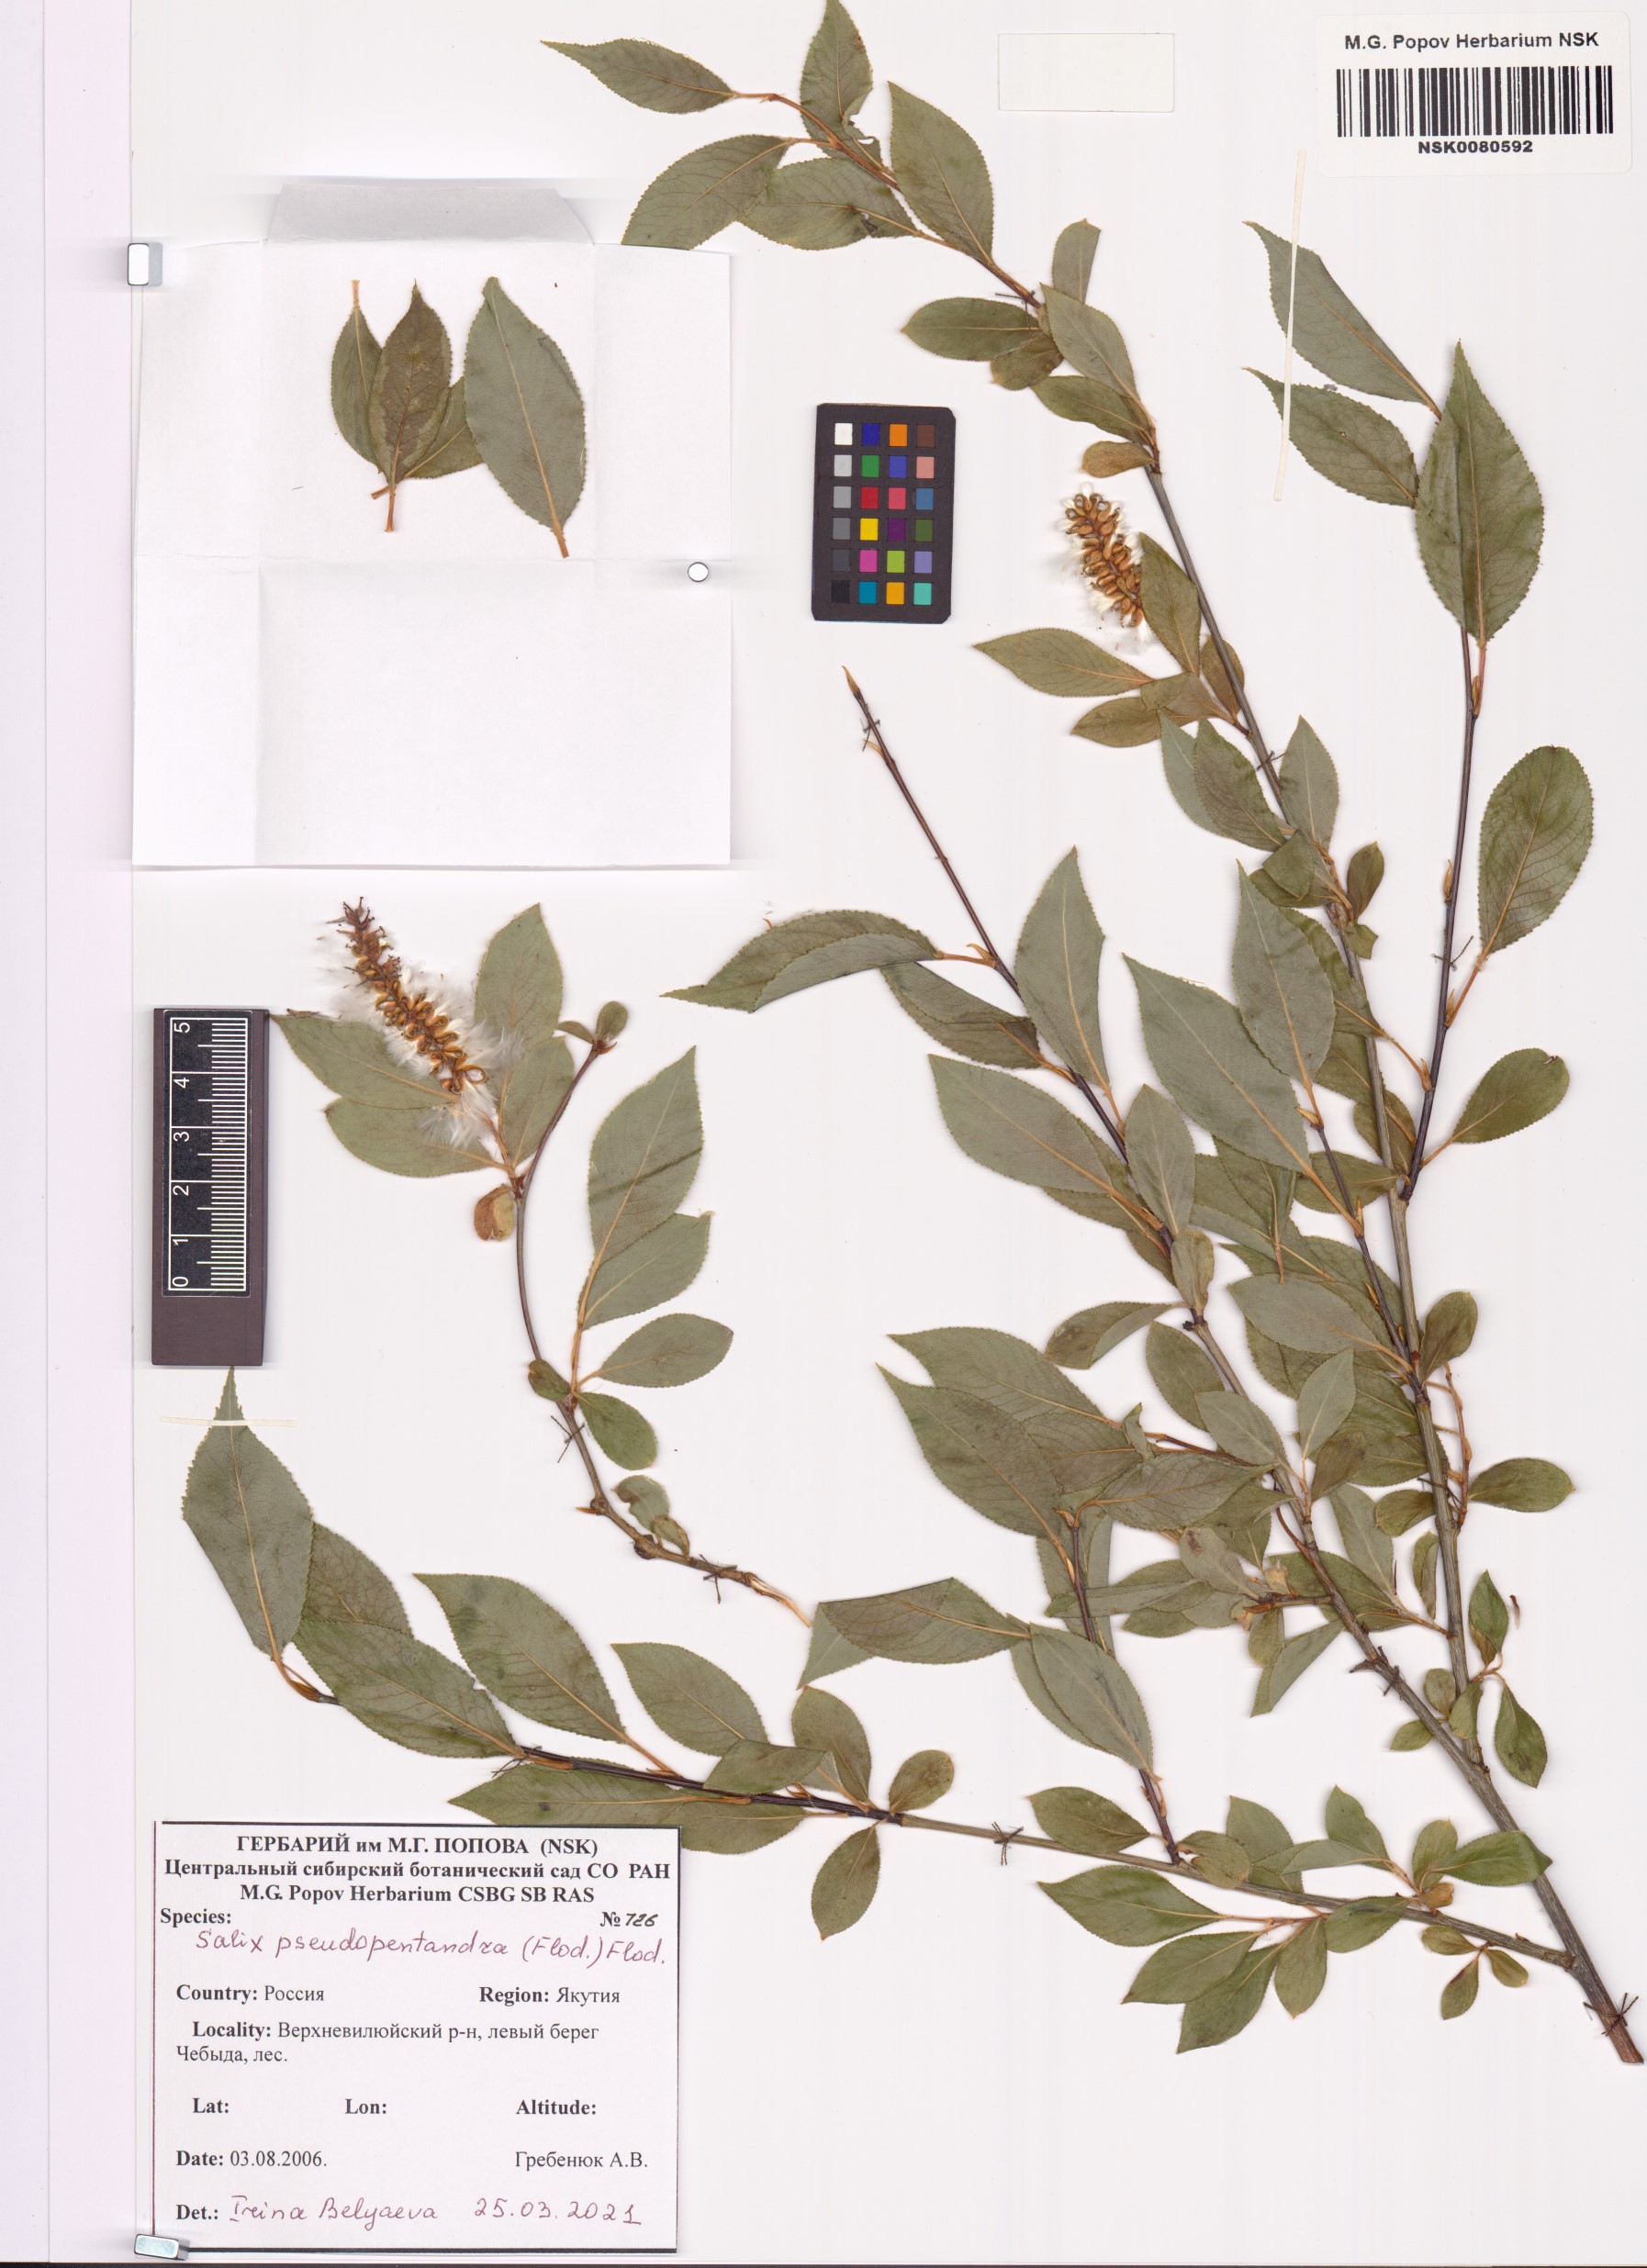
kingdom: Plantae
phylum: Tracheophyta
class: Magnoliopsida
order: Malpighiales
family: Salicaceae
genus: Salix
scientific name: Salix pseudopentandra
